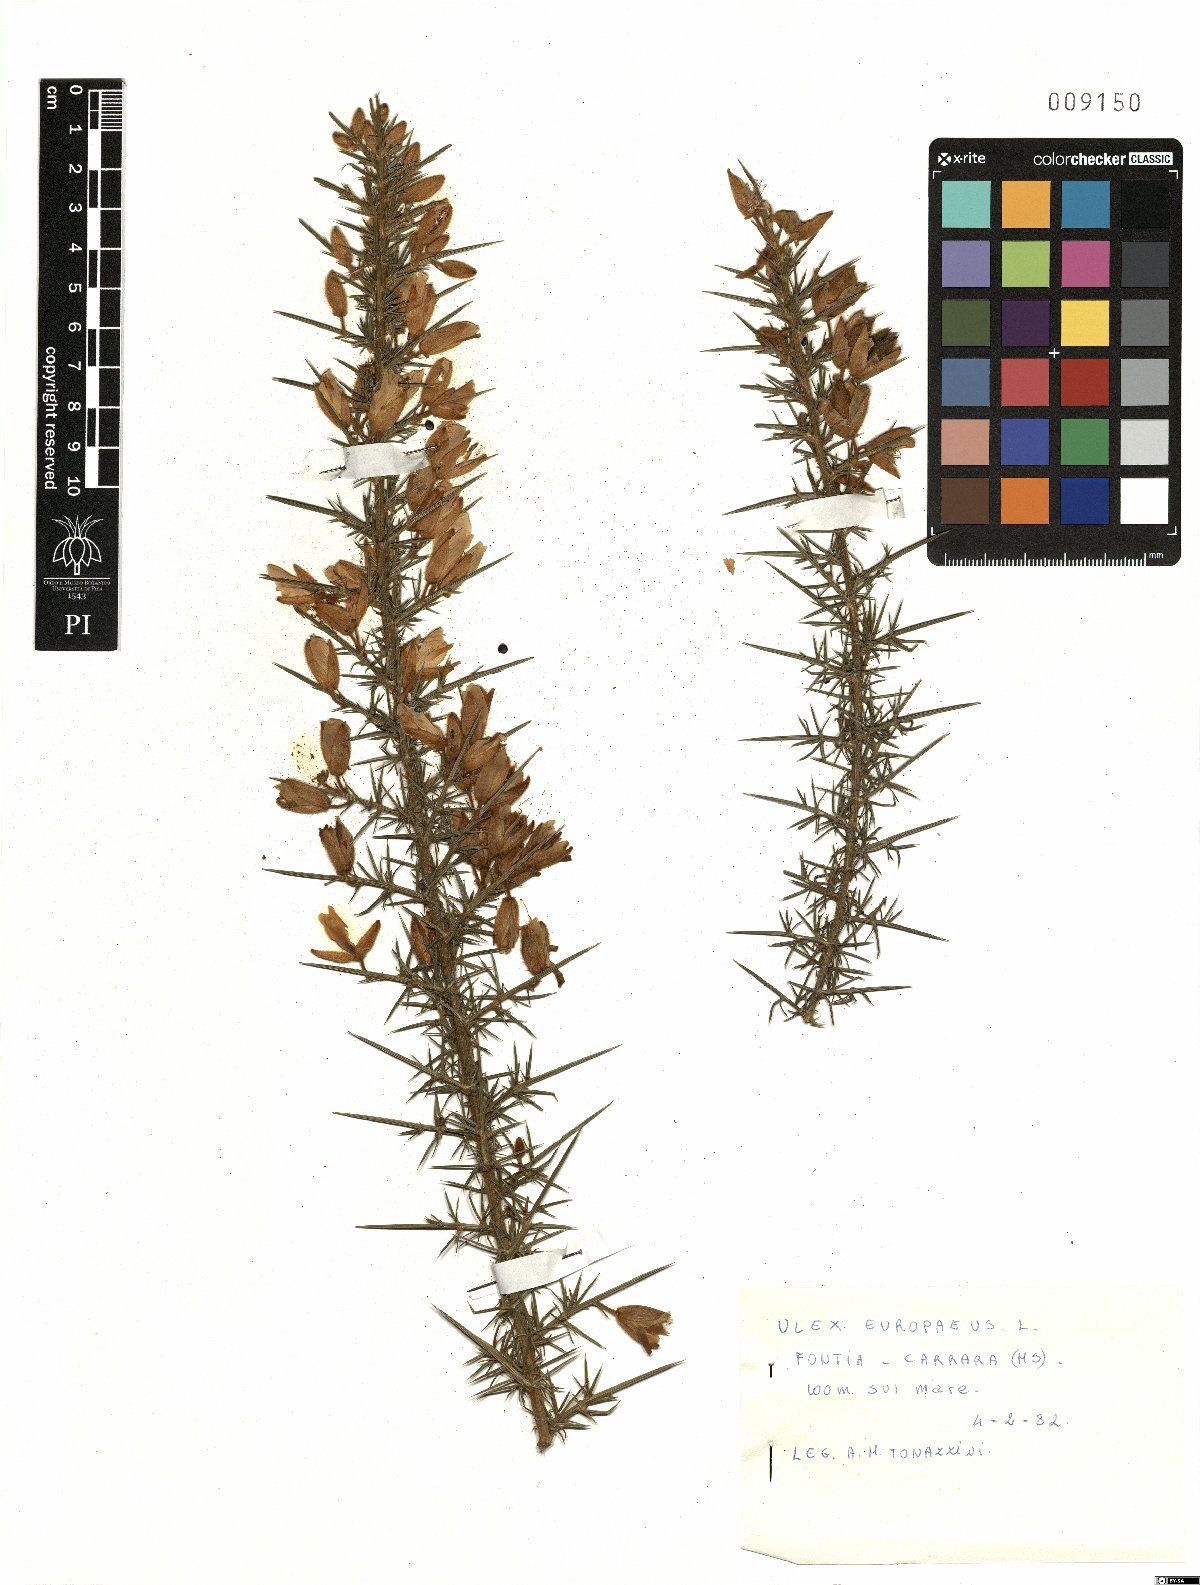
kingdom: Plantae
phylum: Tracheophyta
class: Magnoliopsida
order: Fabales
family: Fabaceae
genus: Ulex
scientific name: Ulex europaeus
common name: Common gorse
